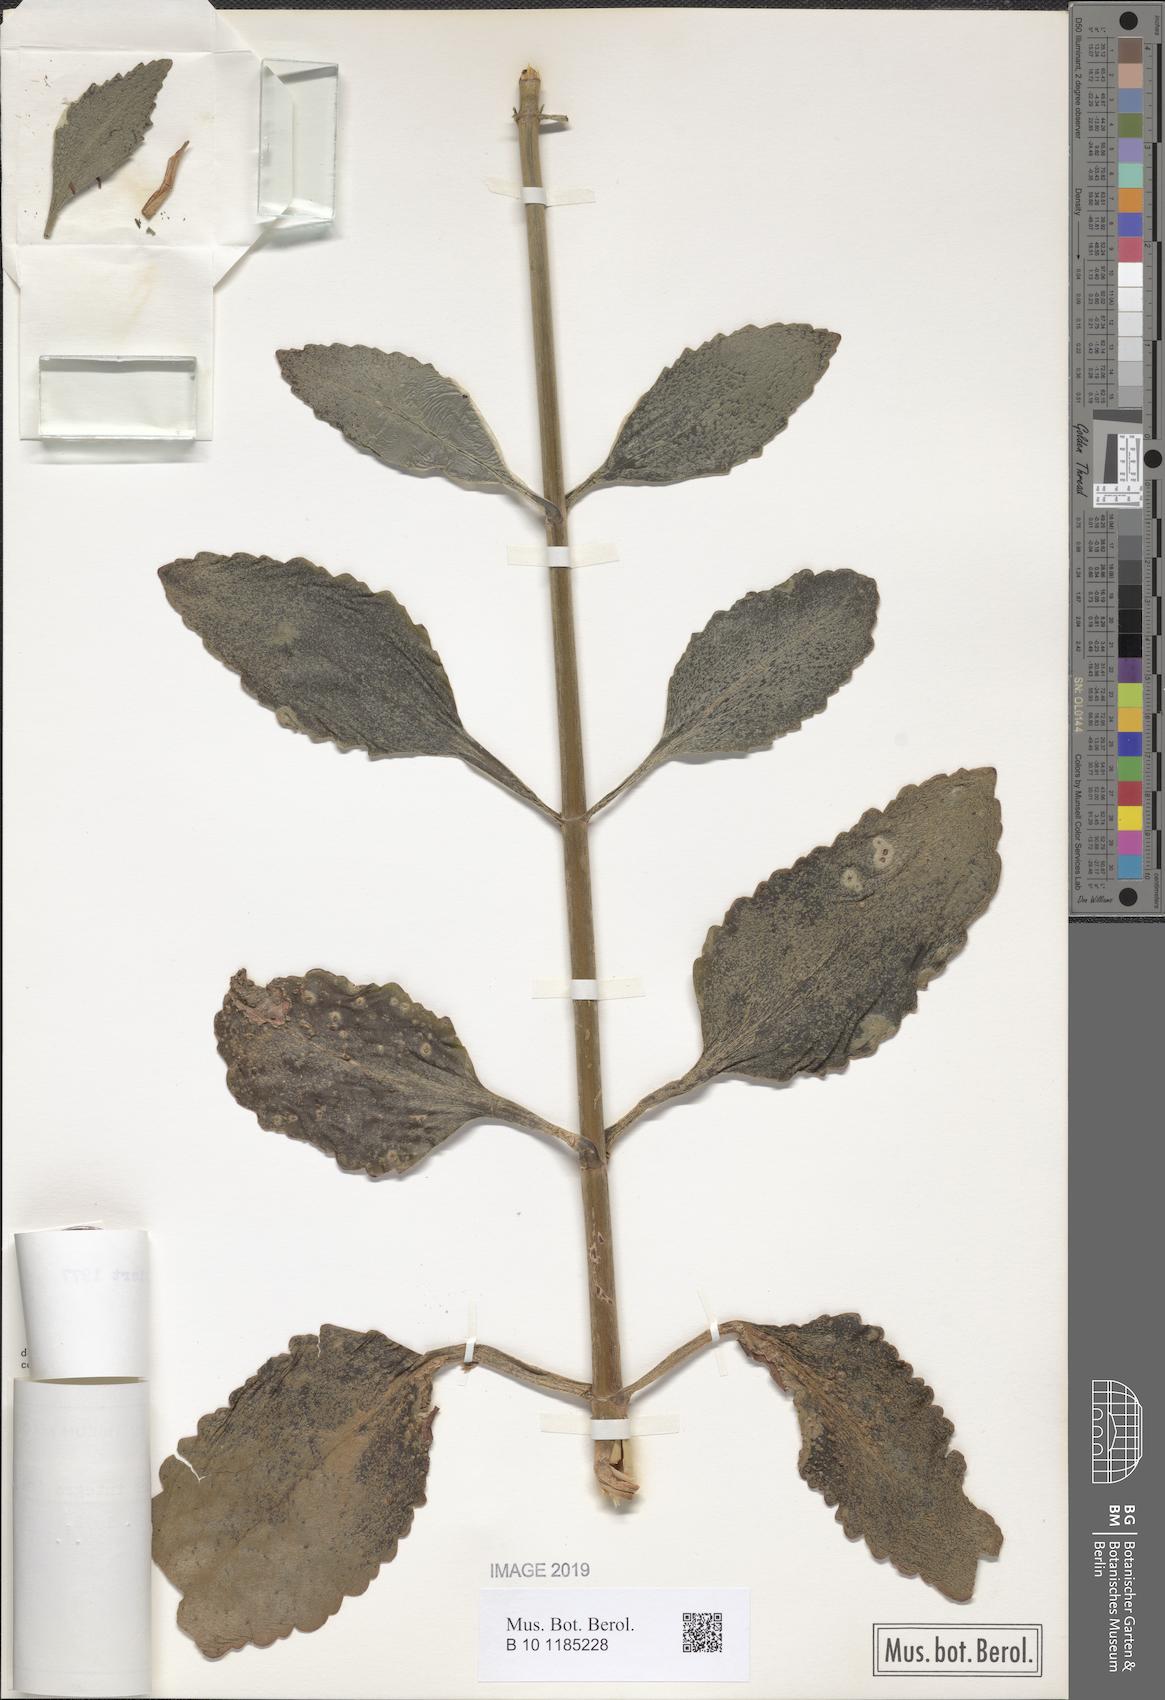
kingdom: Plantae
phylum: Tracheophyta
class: Magnoliopsida
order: Saxifragales
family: Crassulaceae
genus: Kalanchoe
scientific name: Kalanchoe crenata
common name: Neverdie
